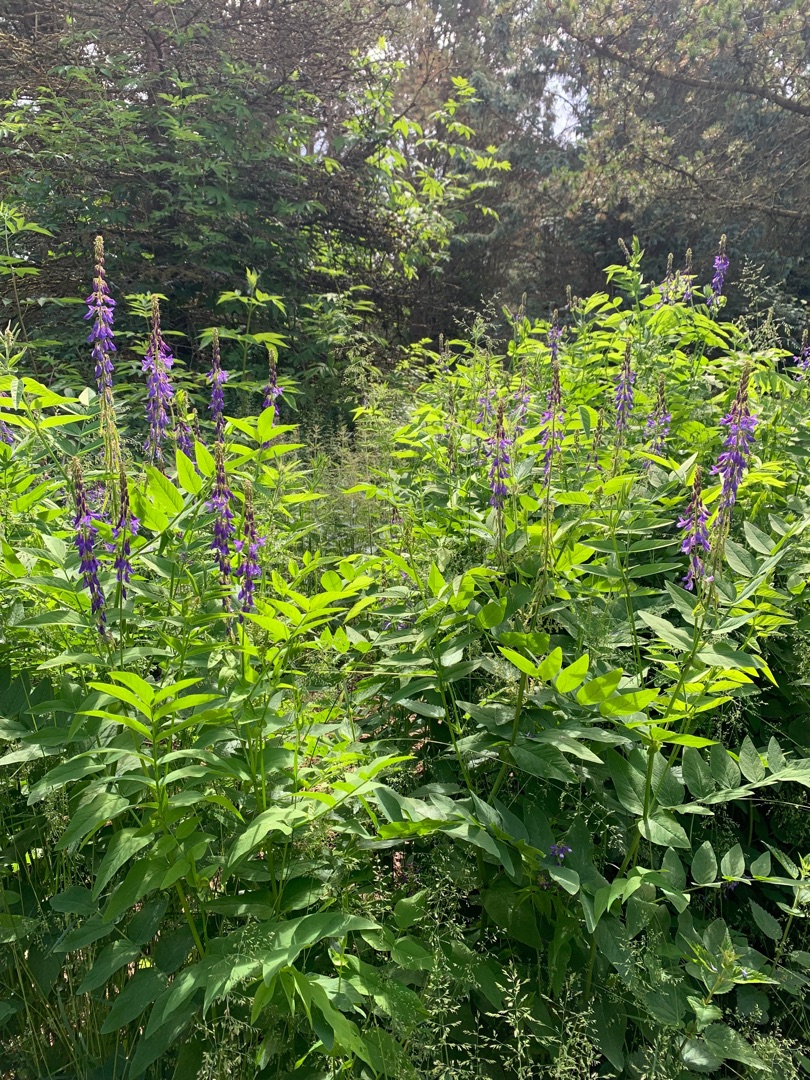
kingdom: Plantae
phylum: Tracheophyta
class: Magnoliopsida
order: Fabales
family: Fabaceae
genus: Galega
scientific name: Galega orientalis
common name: Blå stregbælg
